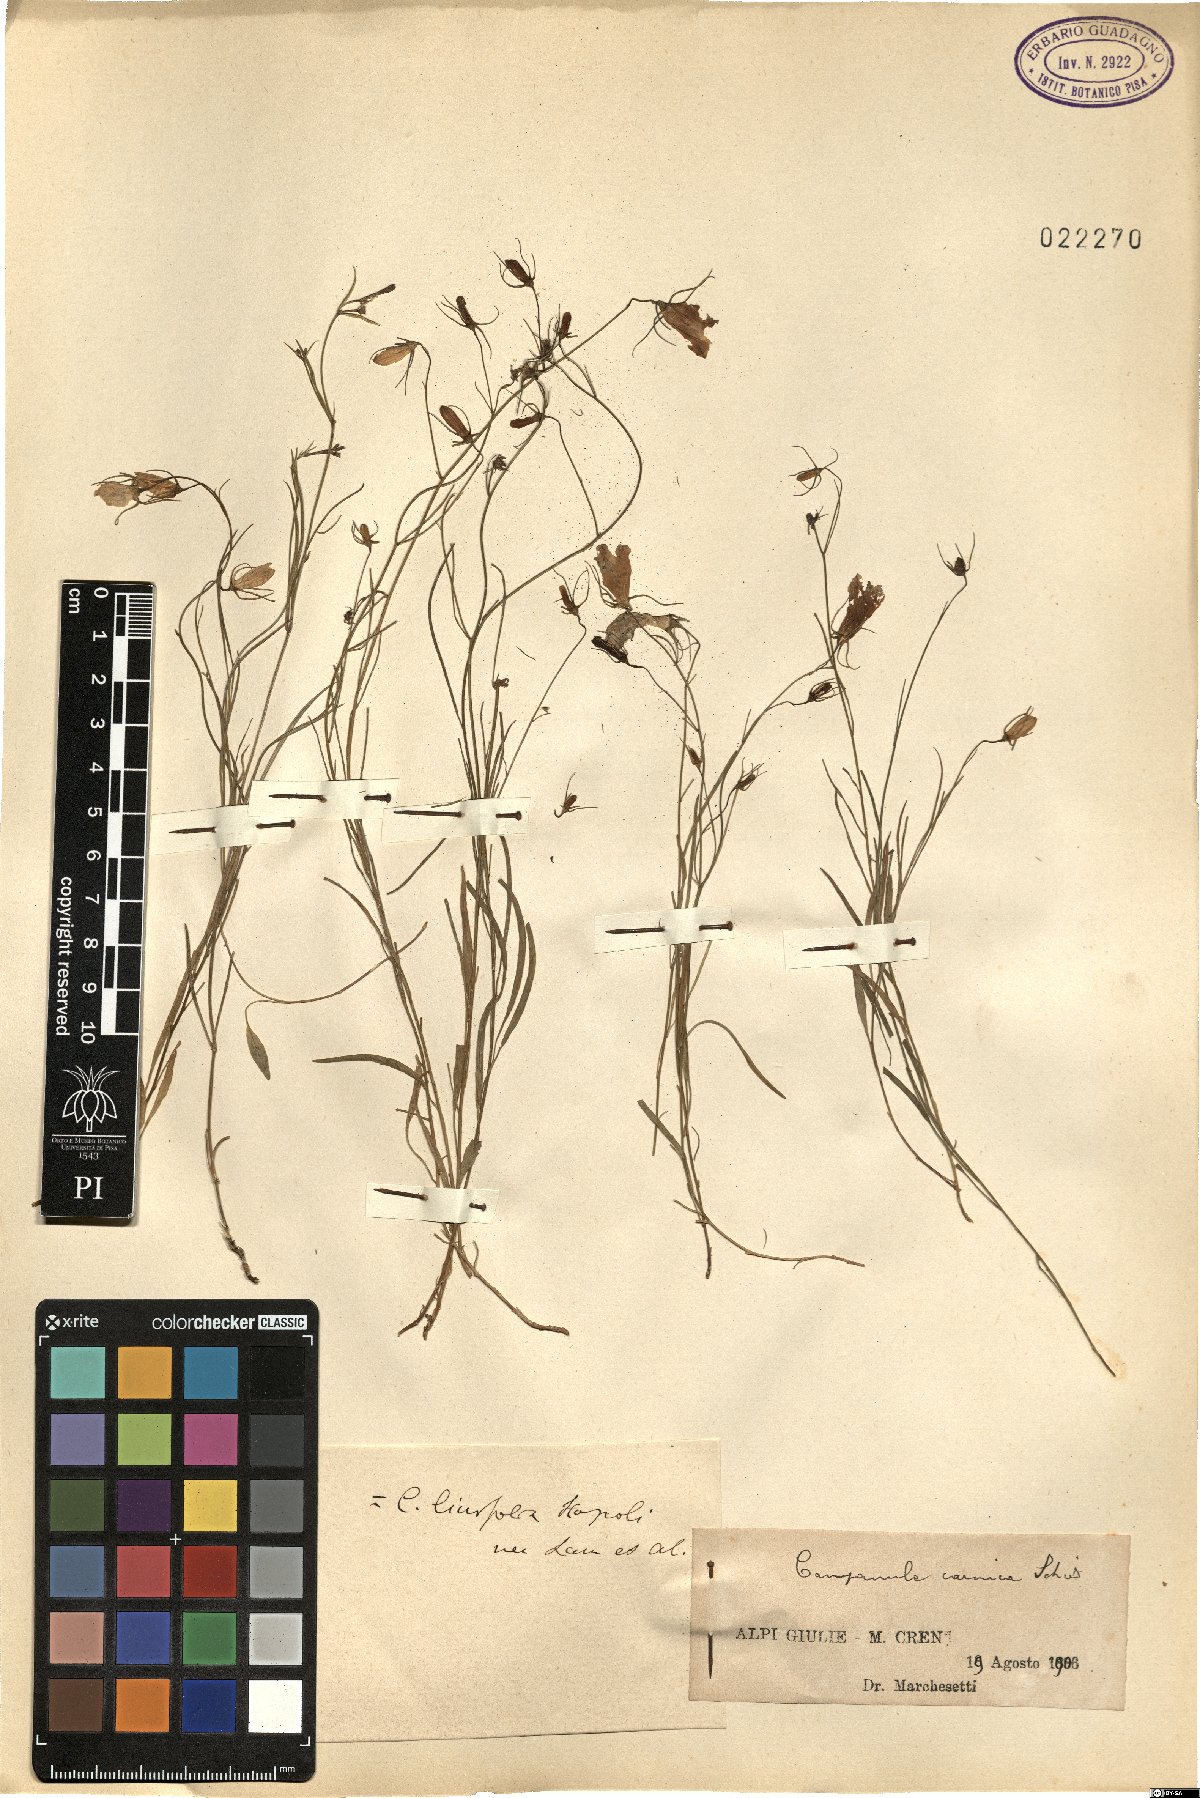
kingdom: Plantae
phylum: Tracheophyta
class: Magnoliopsida
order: Asterales
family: Campanulaceae
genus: Campanula
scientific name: Campanula carnica
